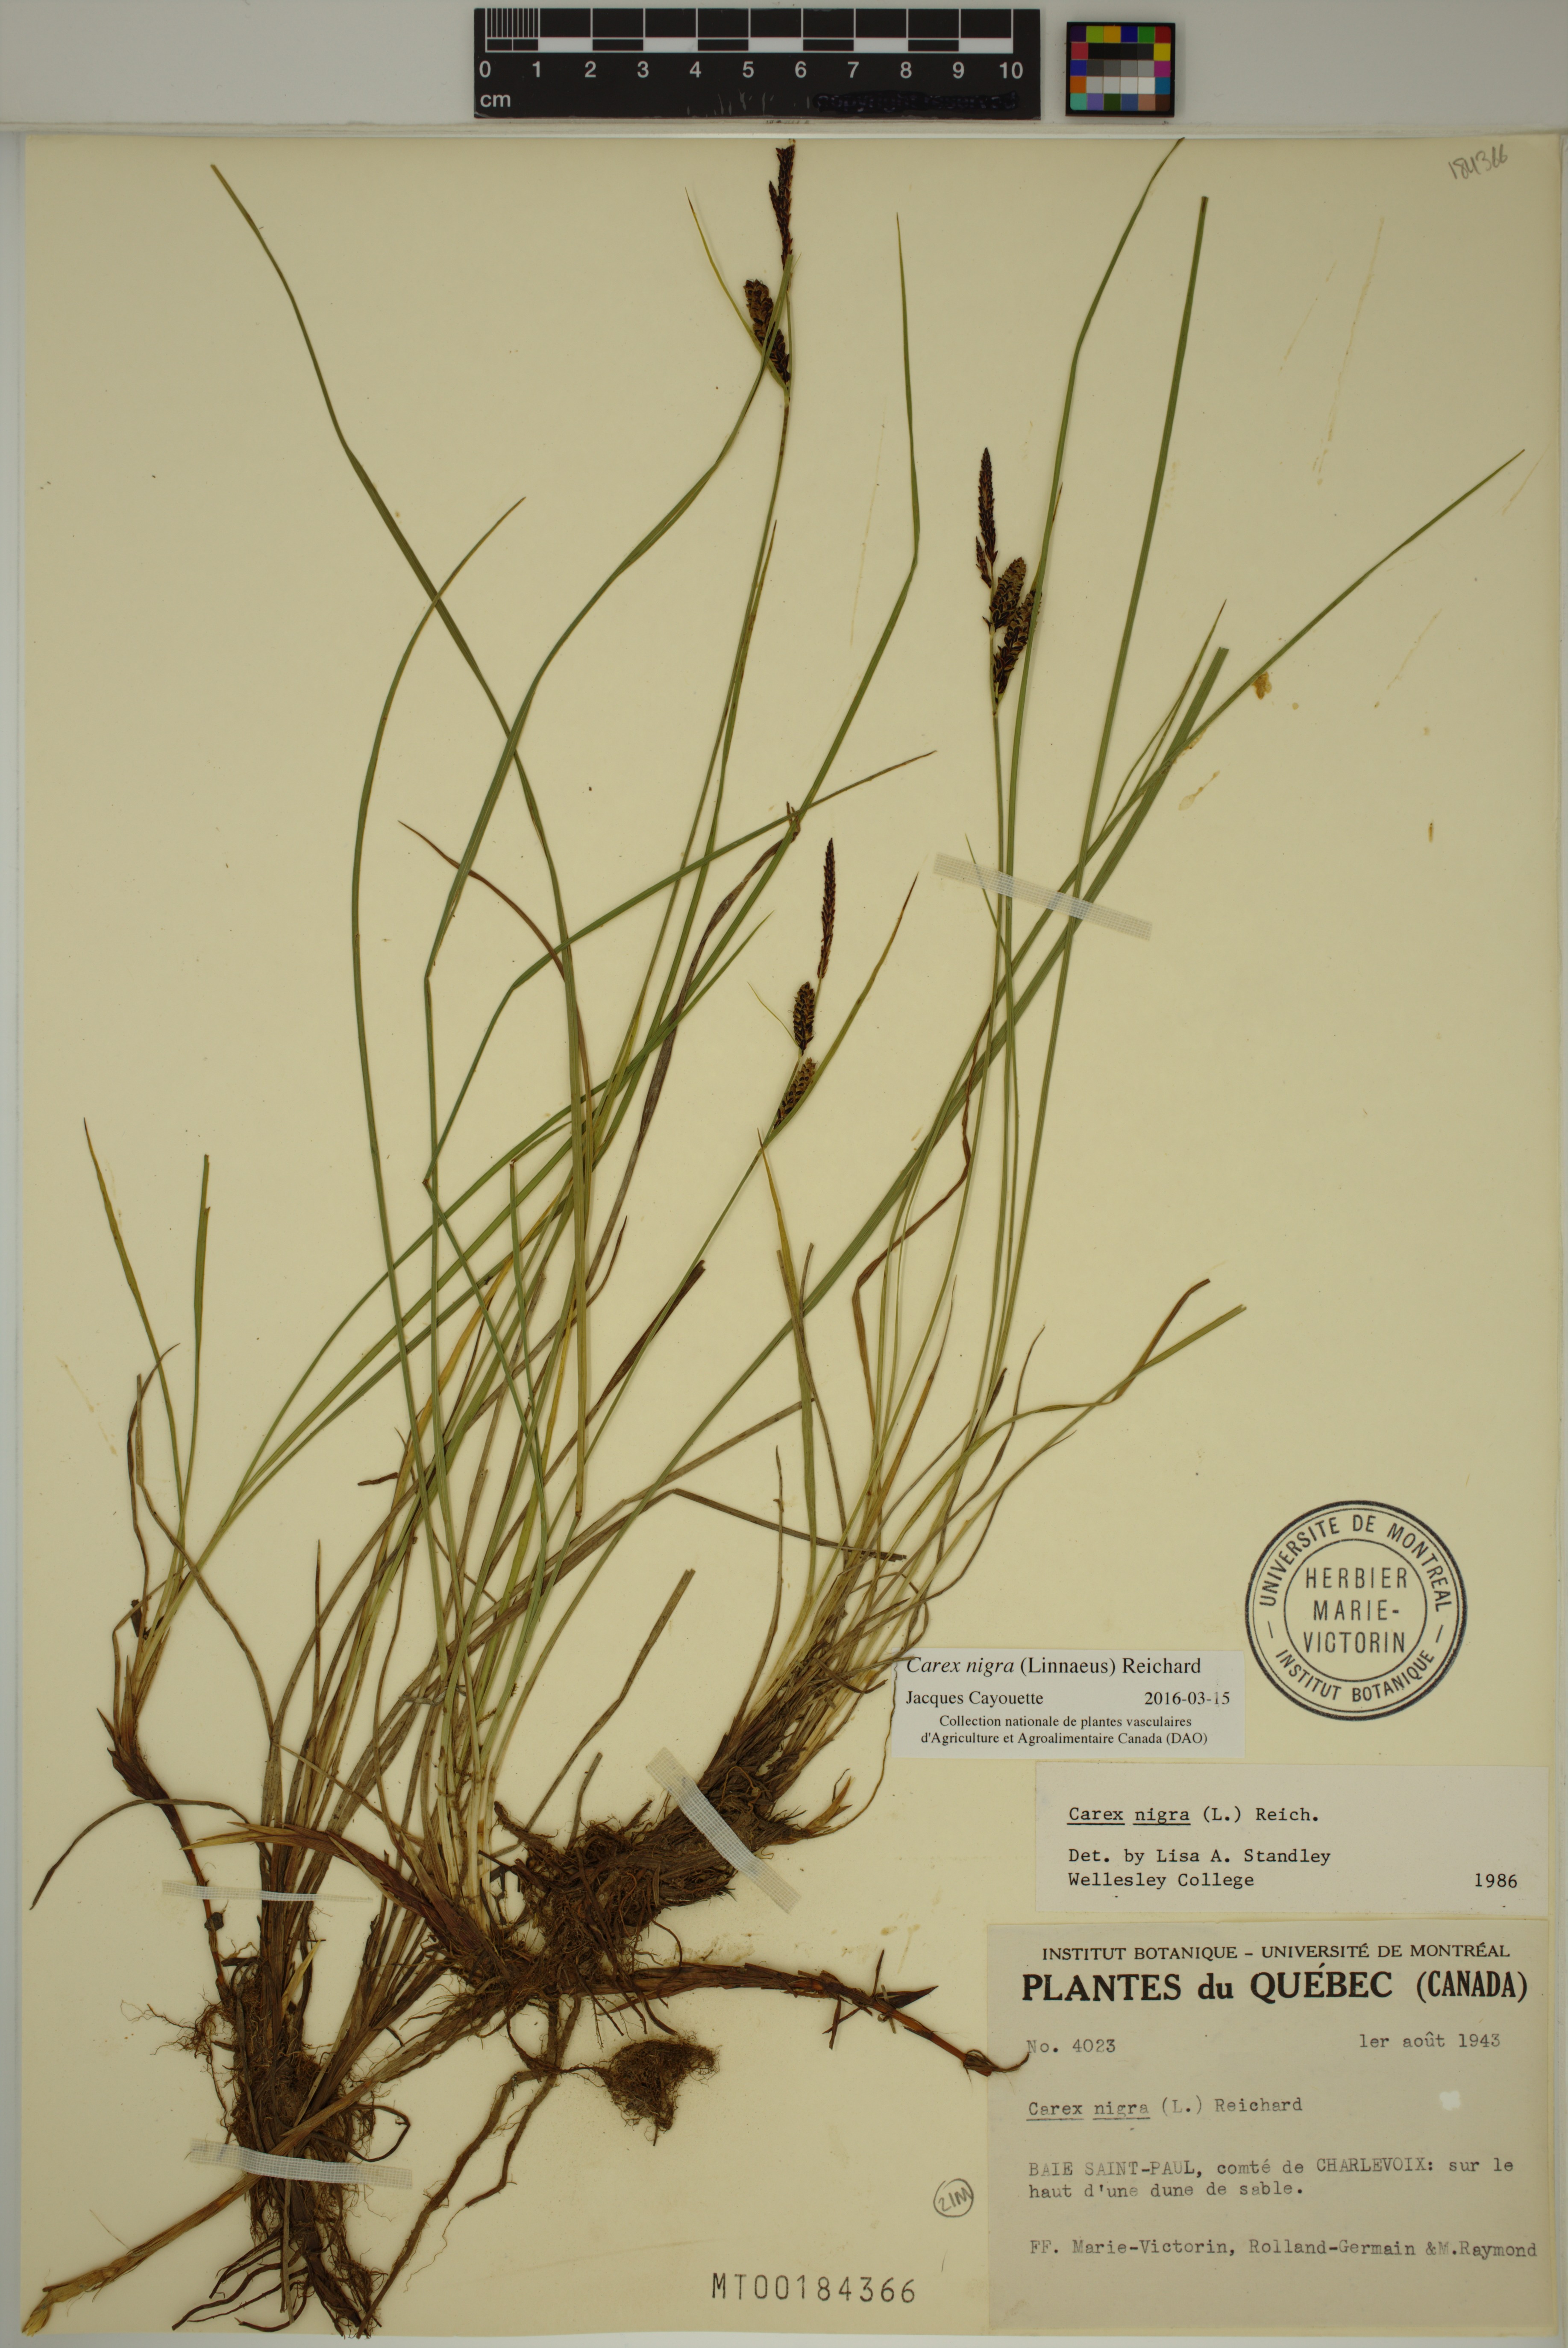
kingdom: Plantae
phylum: Tracheophyta
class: Liliopsida
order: Poales
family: Cyperaceae
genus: Carex
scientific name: Carex nigra
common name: Common sedge
